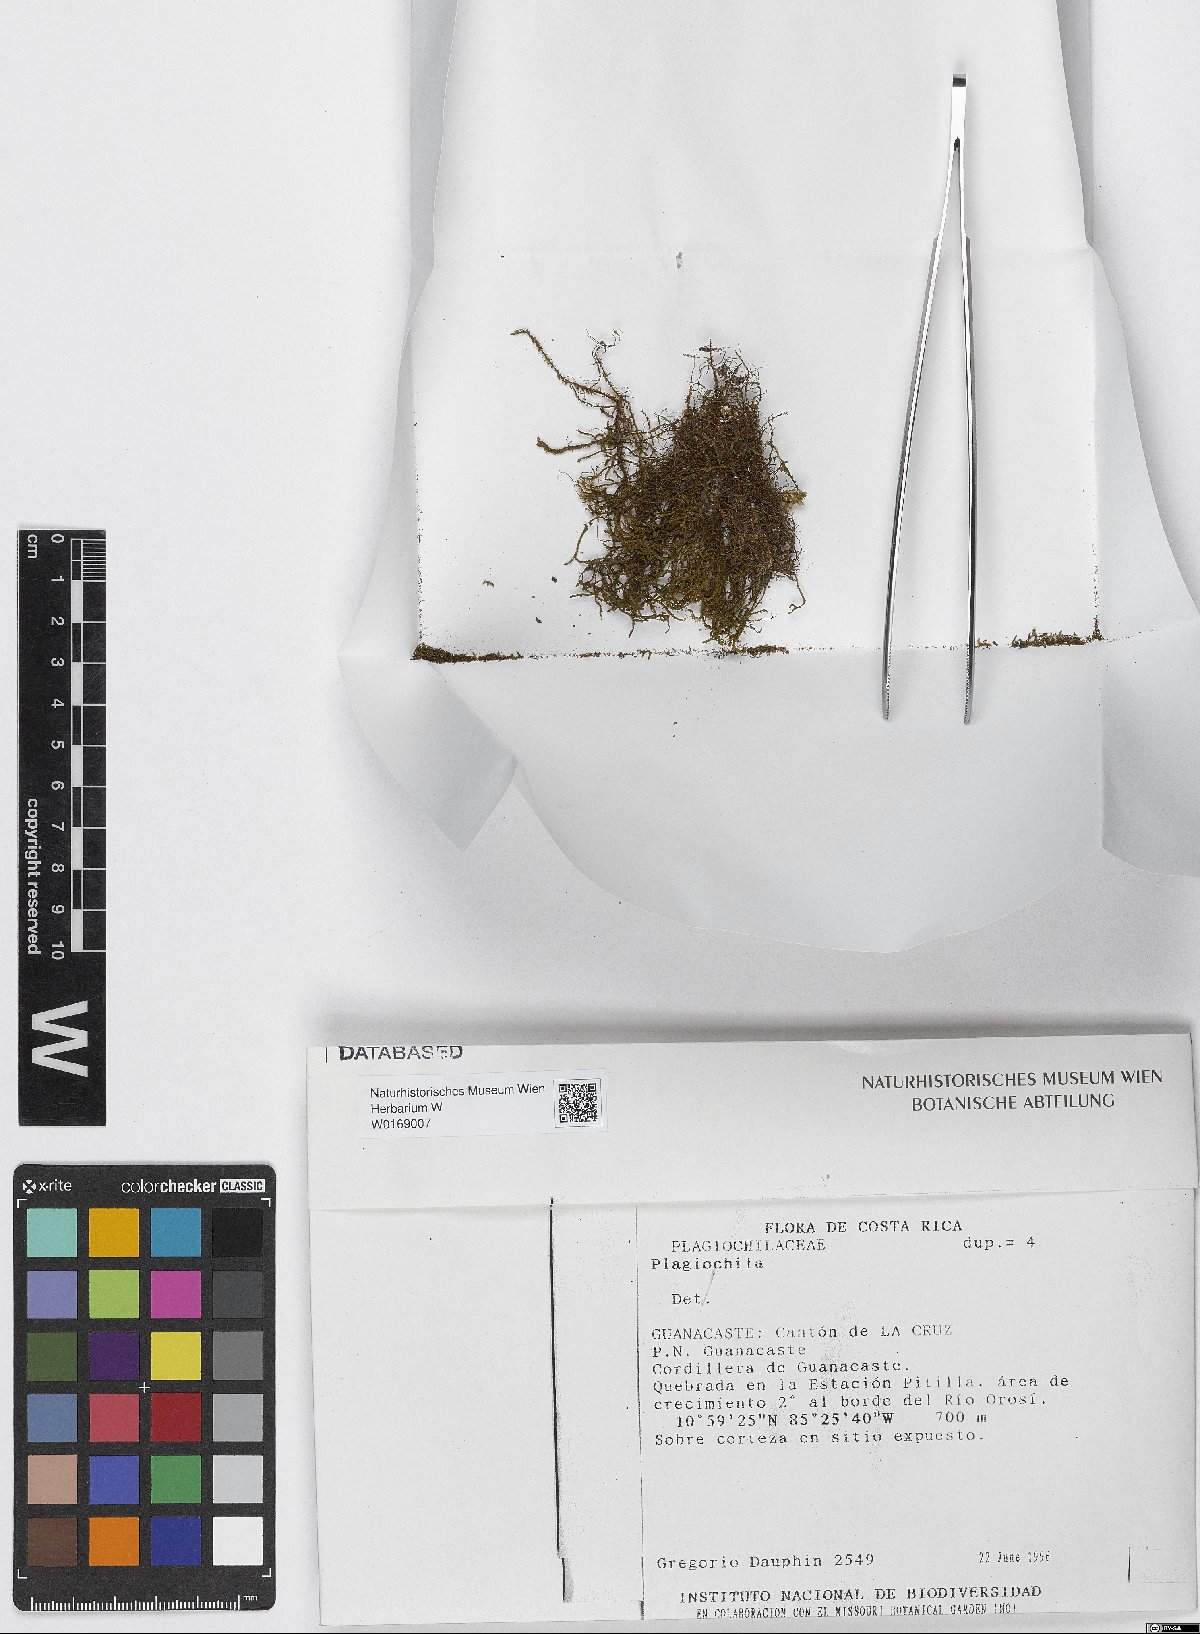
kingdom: Plantae
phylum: Marchantiophyta
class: Jungermanniopsida
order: Jungermanniales
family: Plagiochilaceae
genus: Plagiochila
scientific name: Plagiochila
